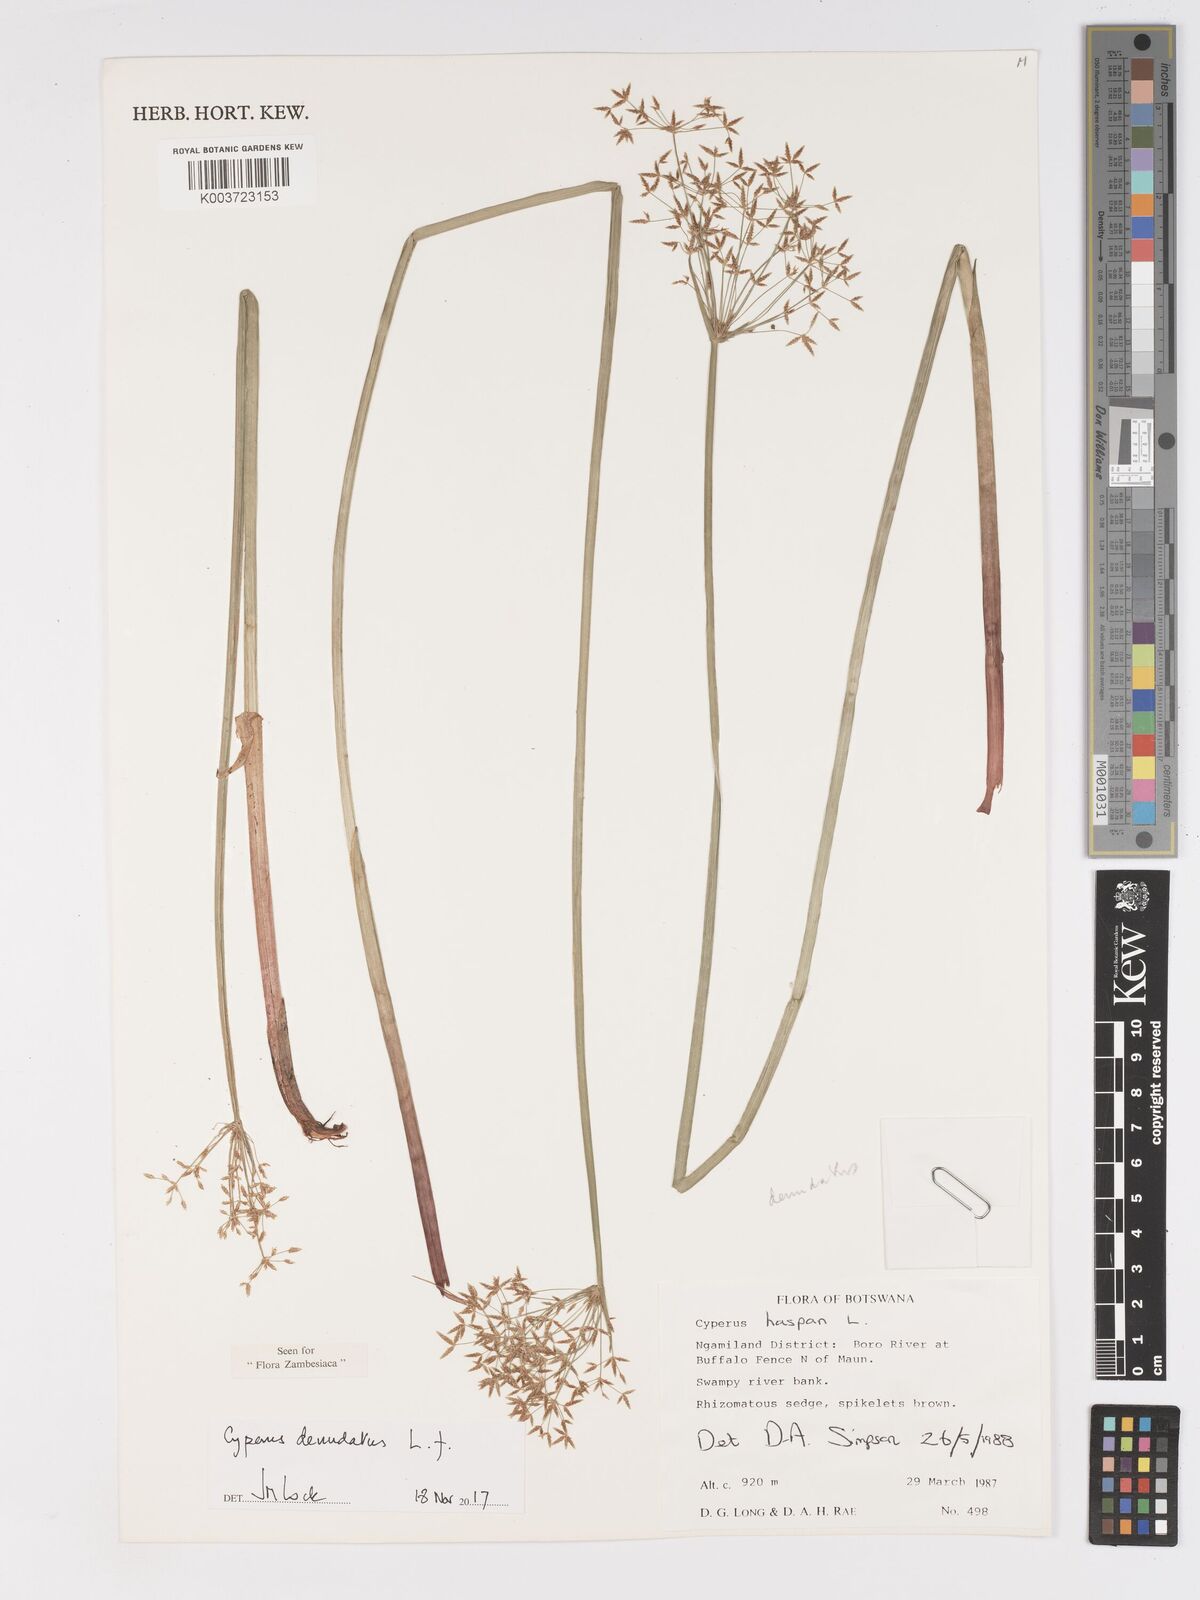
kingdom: Plantae
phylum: Tracheophyta
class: Liliopsida
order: Poales
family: Cyperaceae
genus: Cyperus
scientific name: Cyperus haspan
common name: Haspan flatsedge
